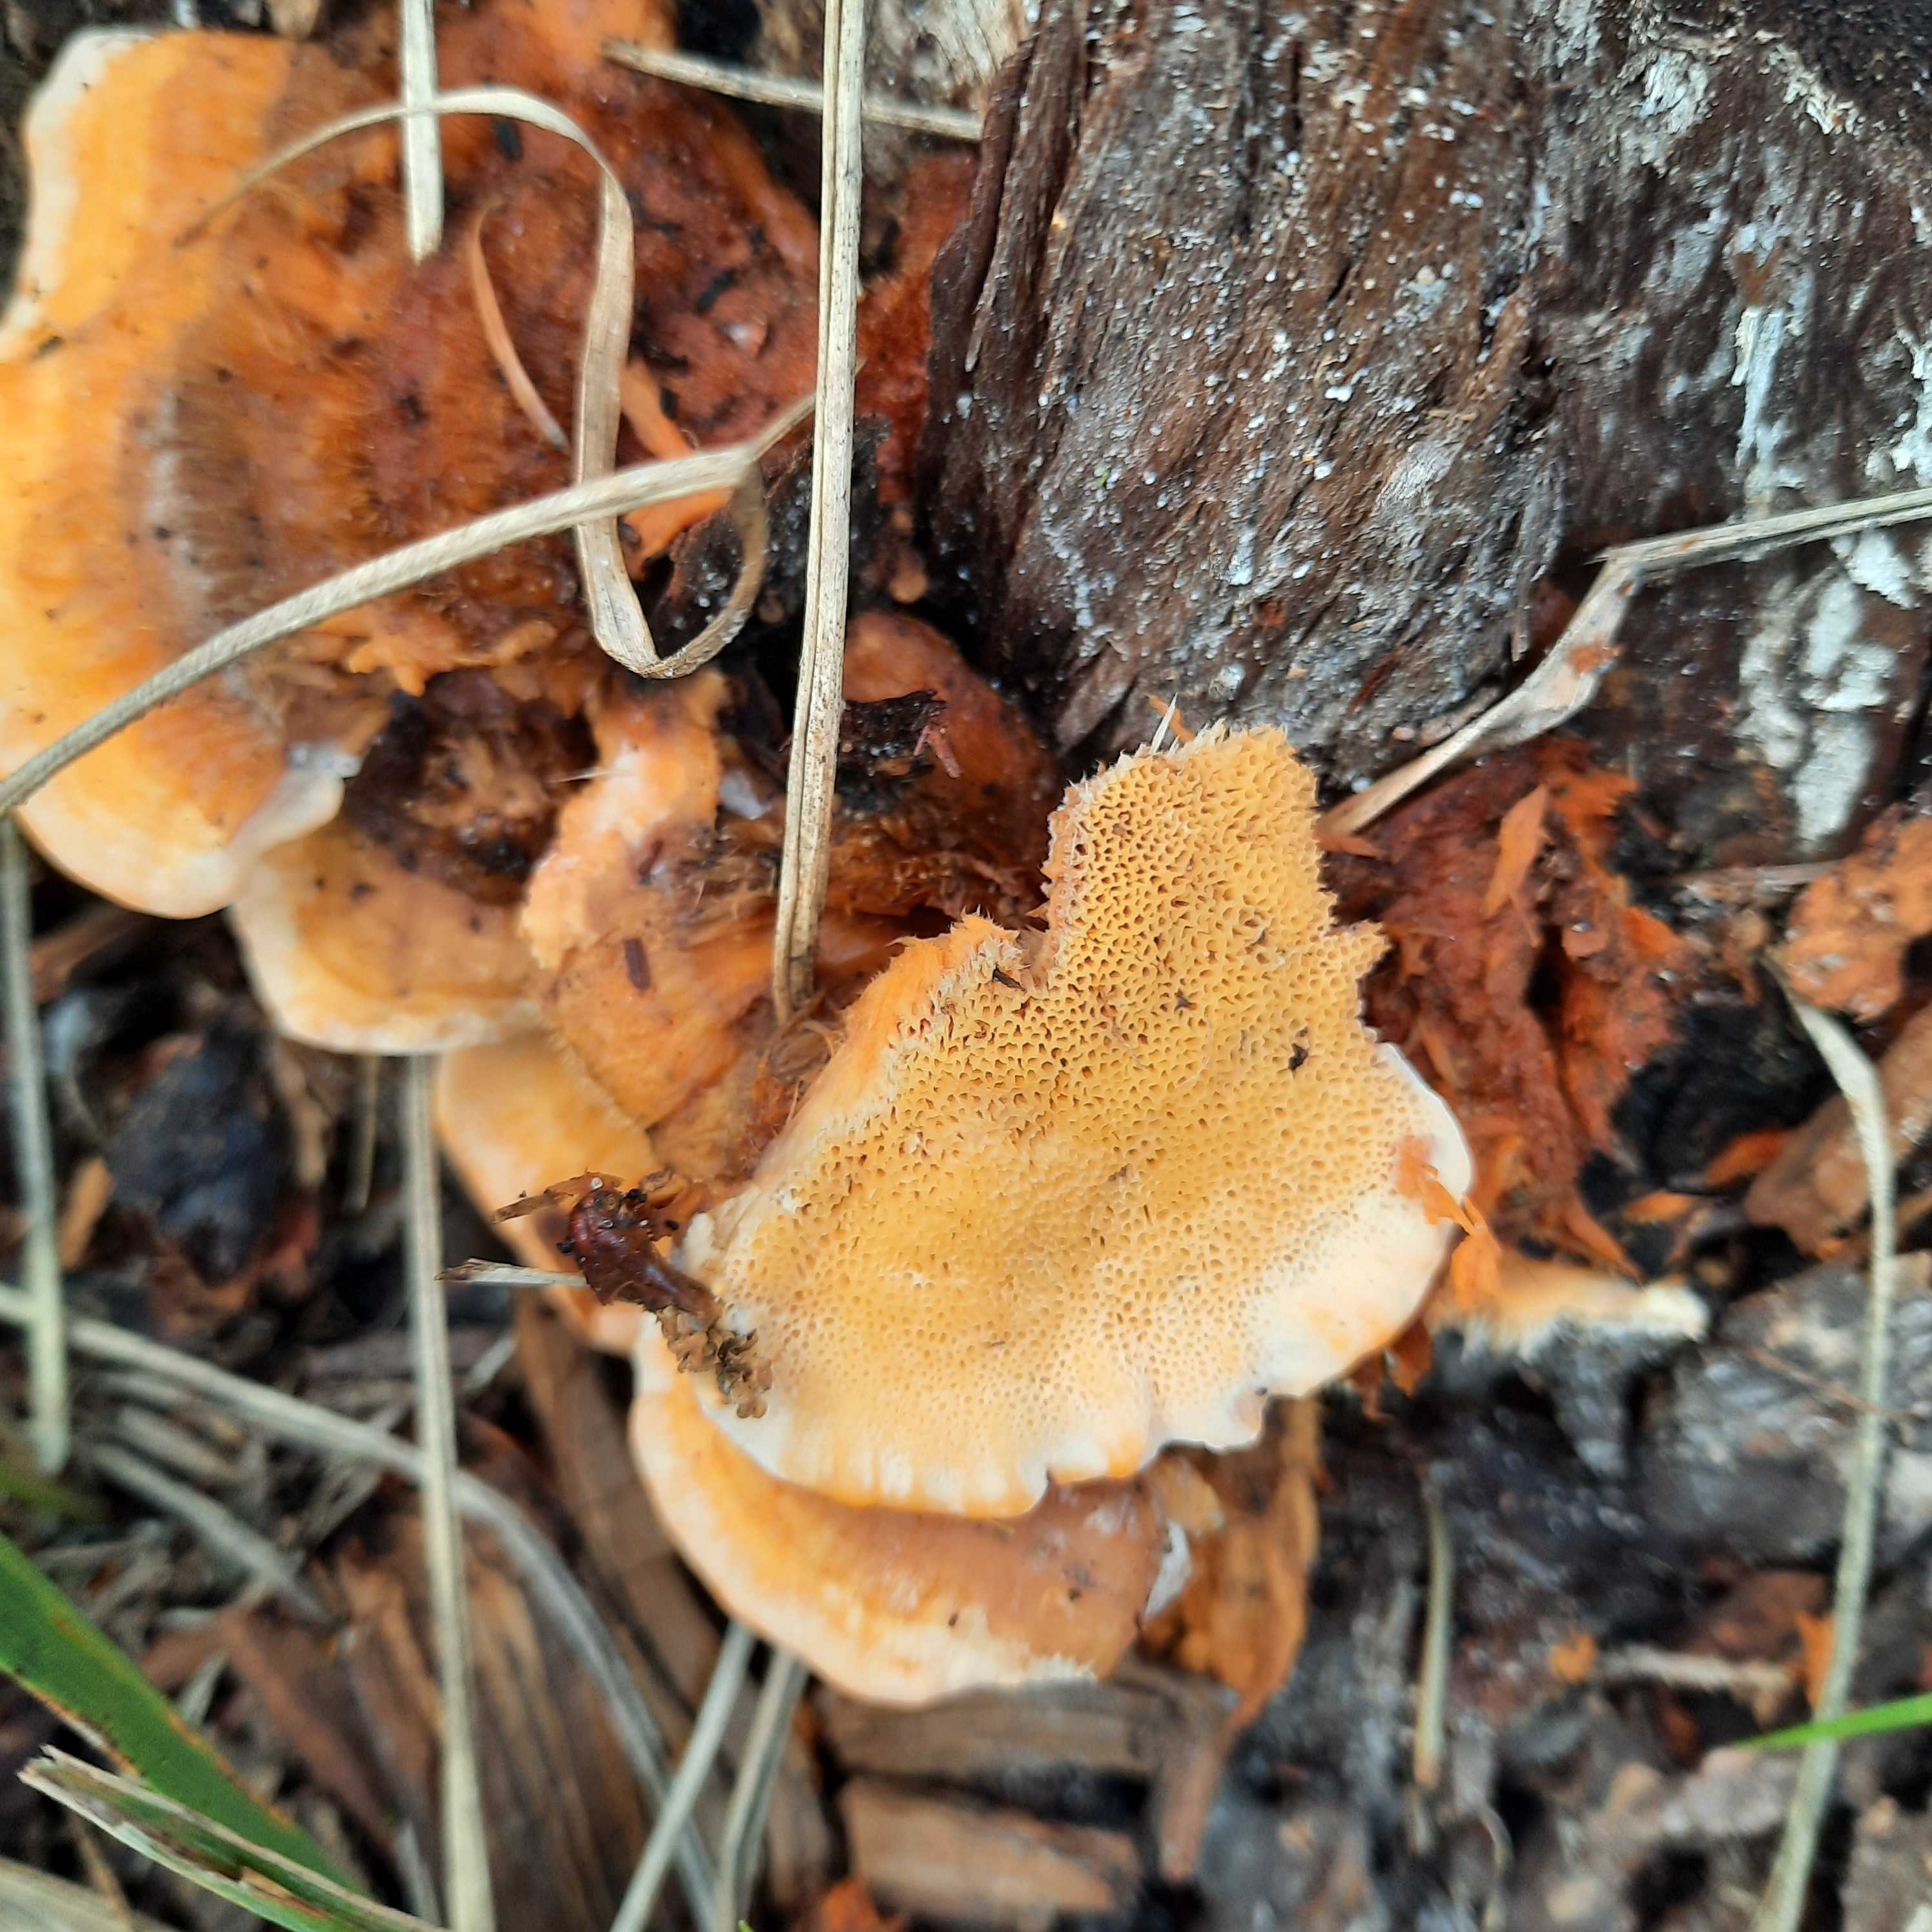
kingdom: Fungi
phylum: Basidiomycota
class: Agaricomycetes
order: Polyporales
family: Pycnoporellaceae
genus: Pycnoporellus
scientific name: Pycnoporellus fulgens
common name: flammeporesvamp
